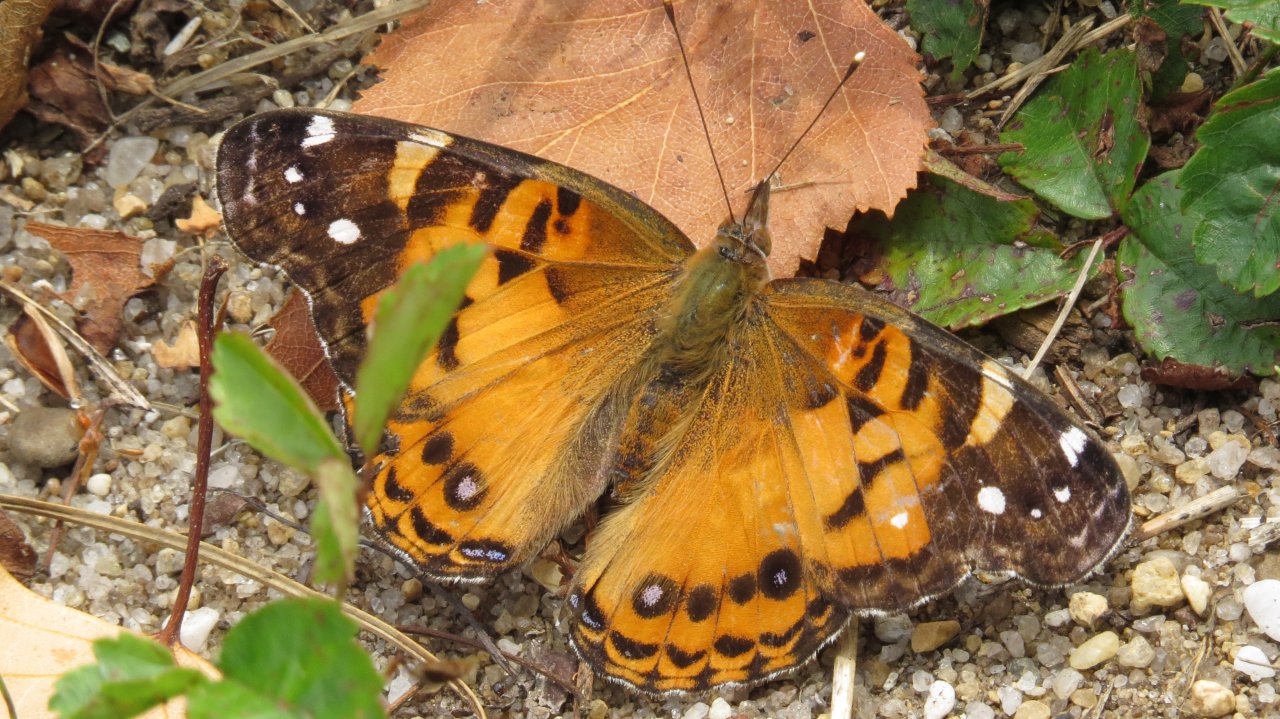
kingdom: Animalia
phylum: Arthropoda
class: Insecta
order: Lepidoptera
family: Nymphalidae
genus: Vanessa
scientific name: Vanessa virginiensis
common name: American Lady
